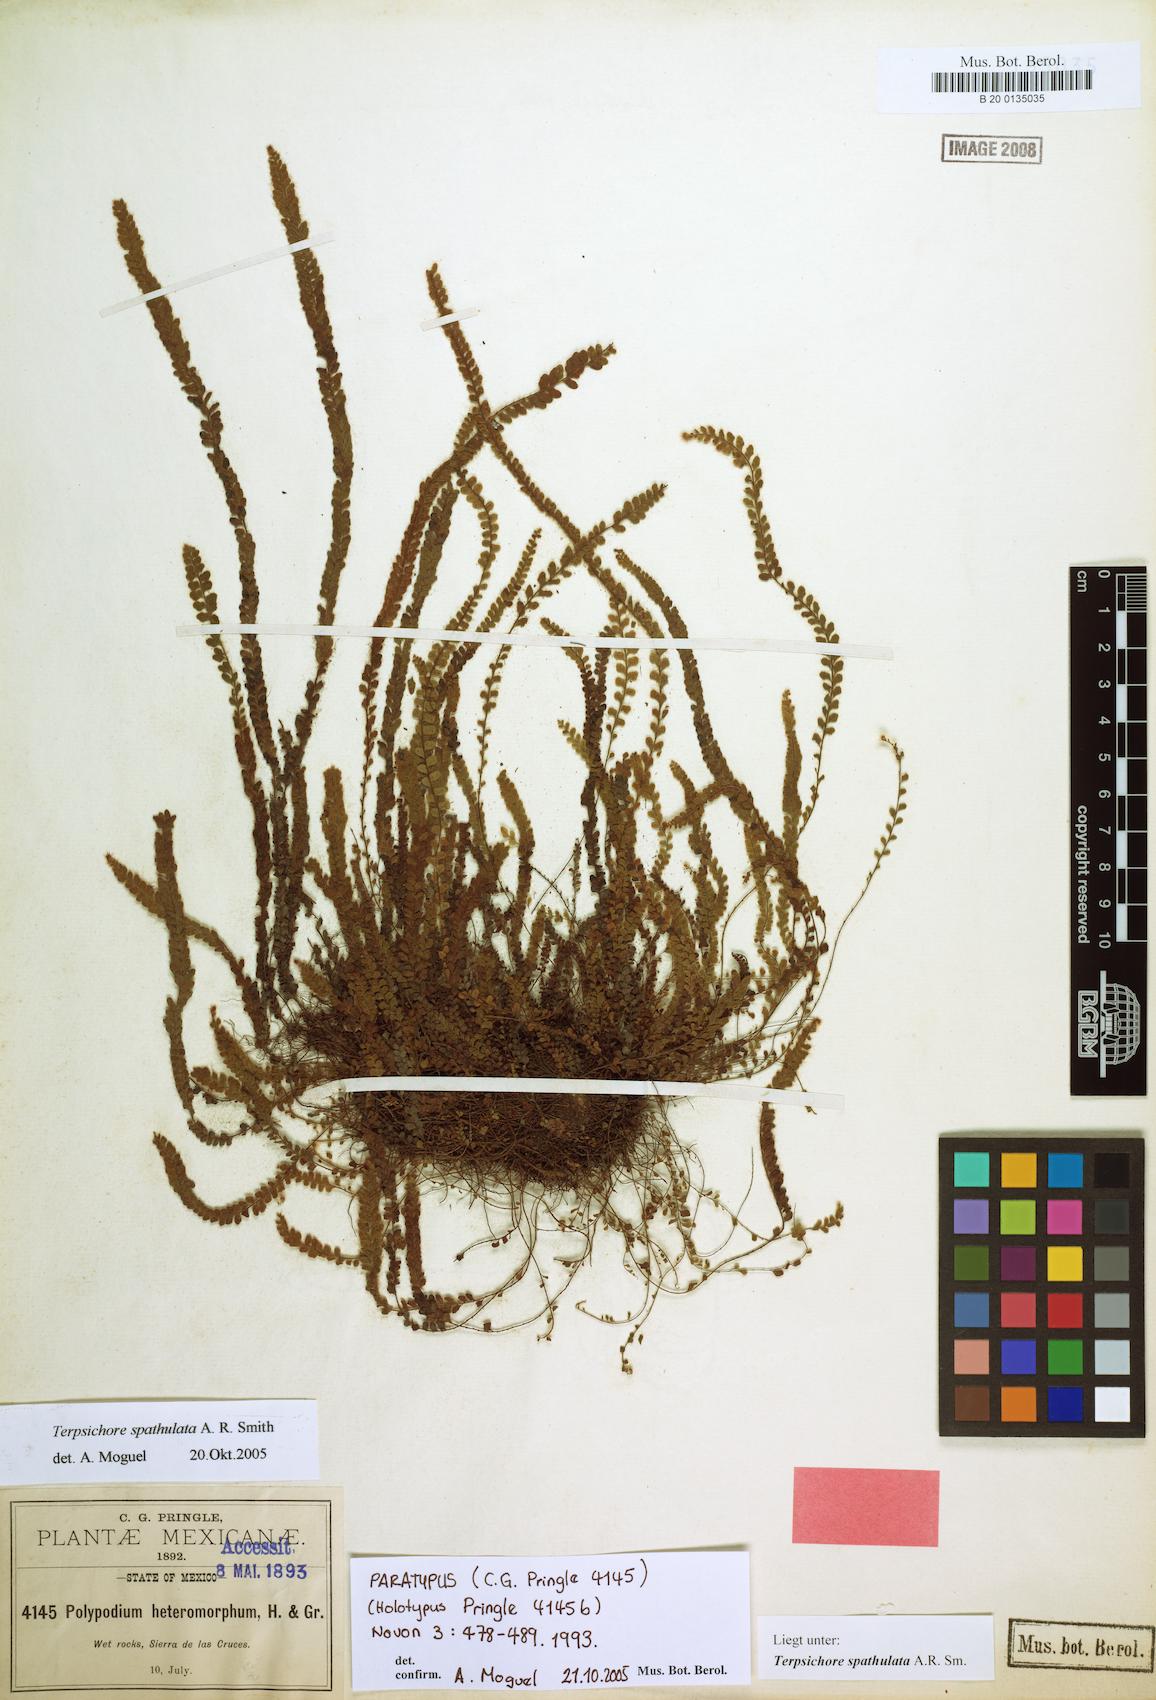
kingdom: Plantae
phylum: Tracheophyta
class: Polypodiopsida
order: Polypodiales
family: Polypodiaceae
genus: Alansmia
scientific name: Alansmia spathulata
